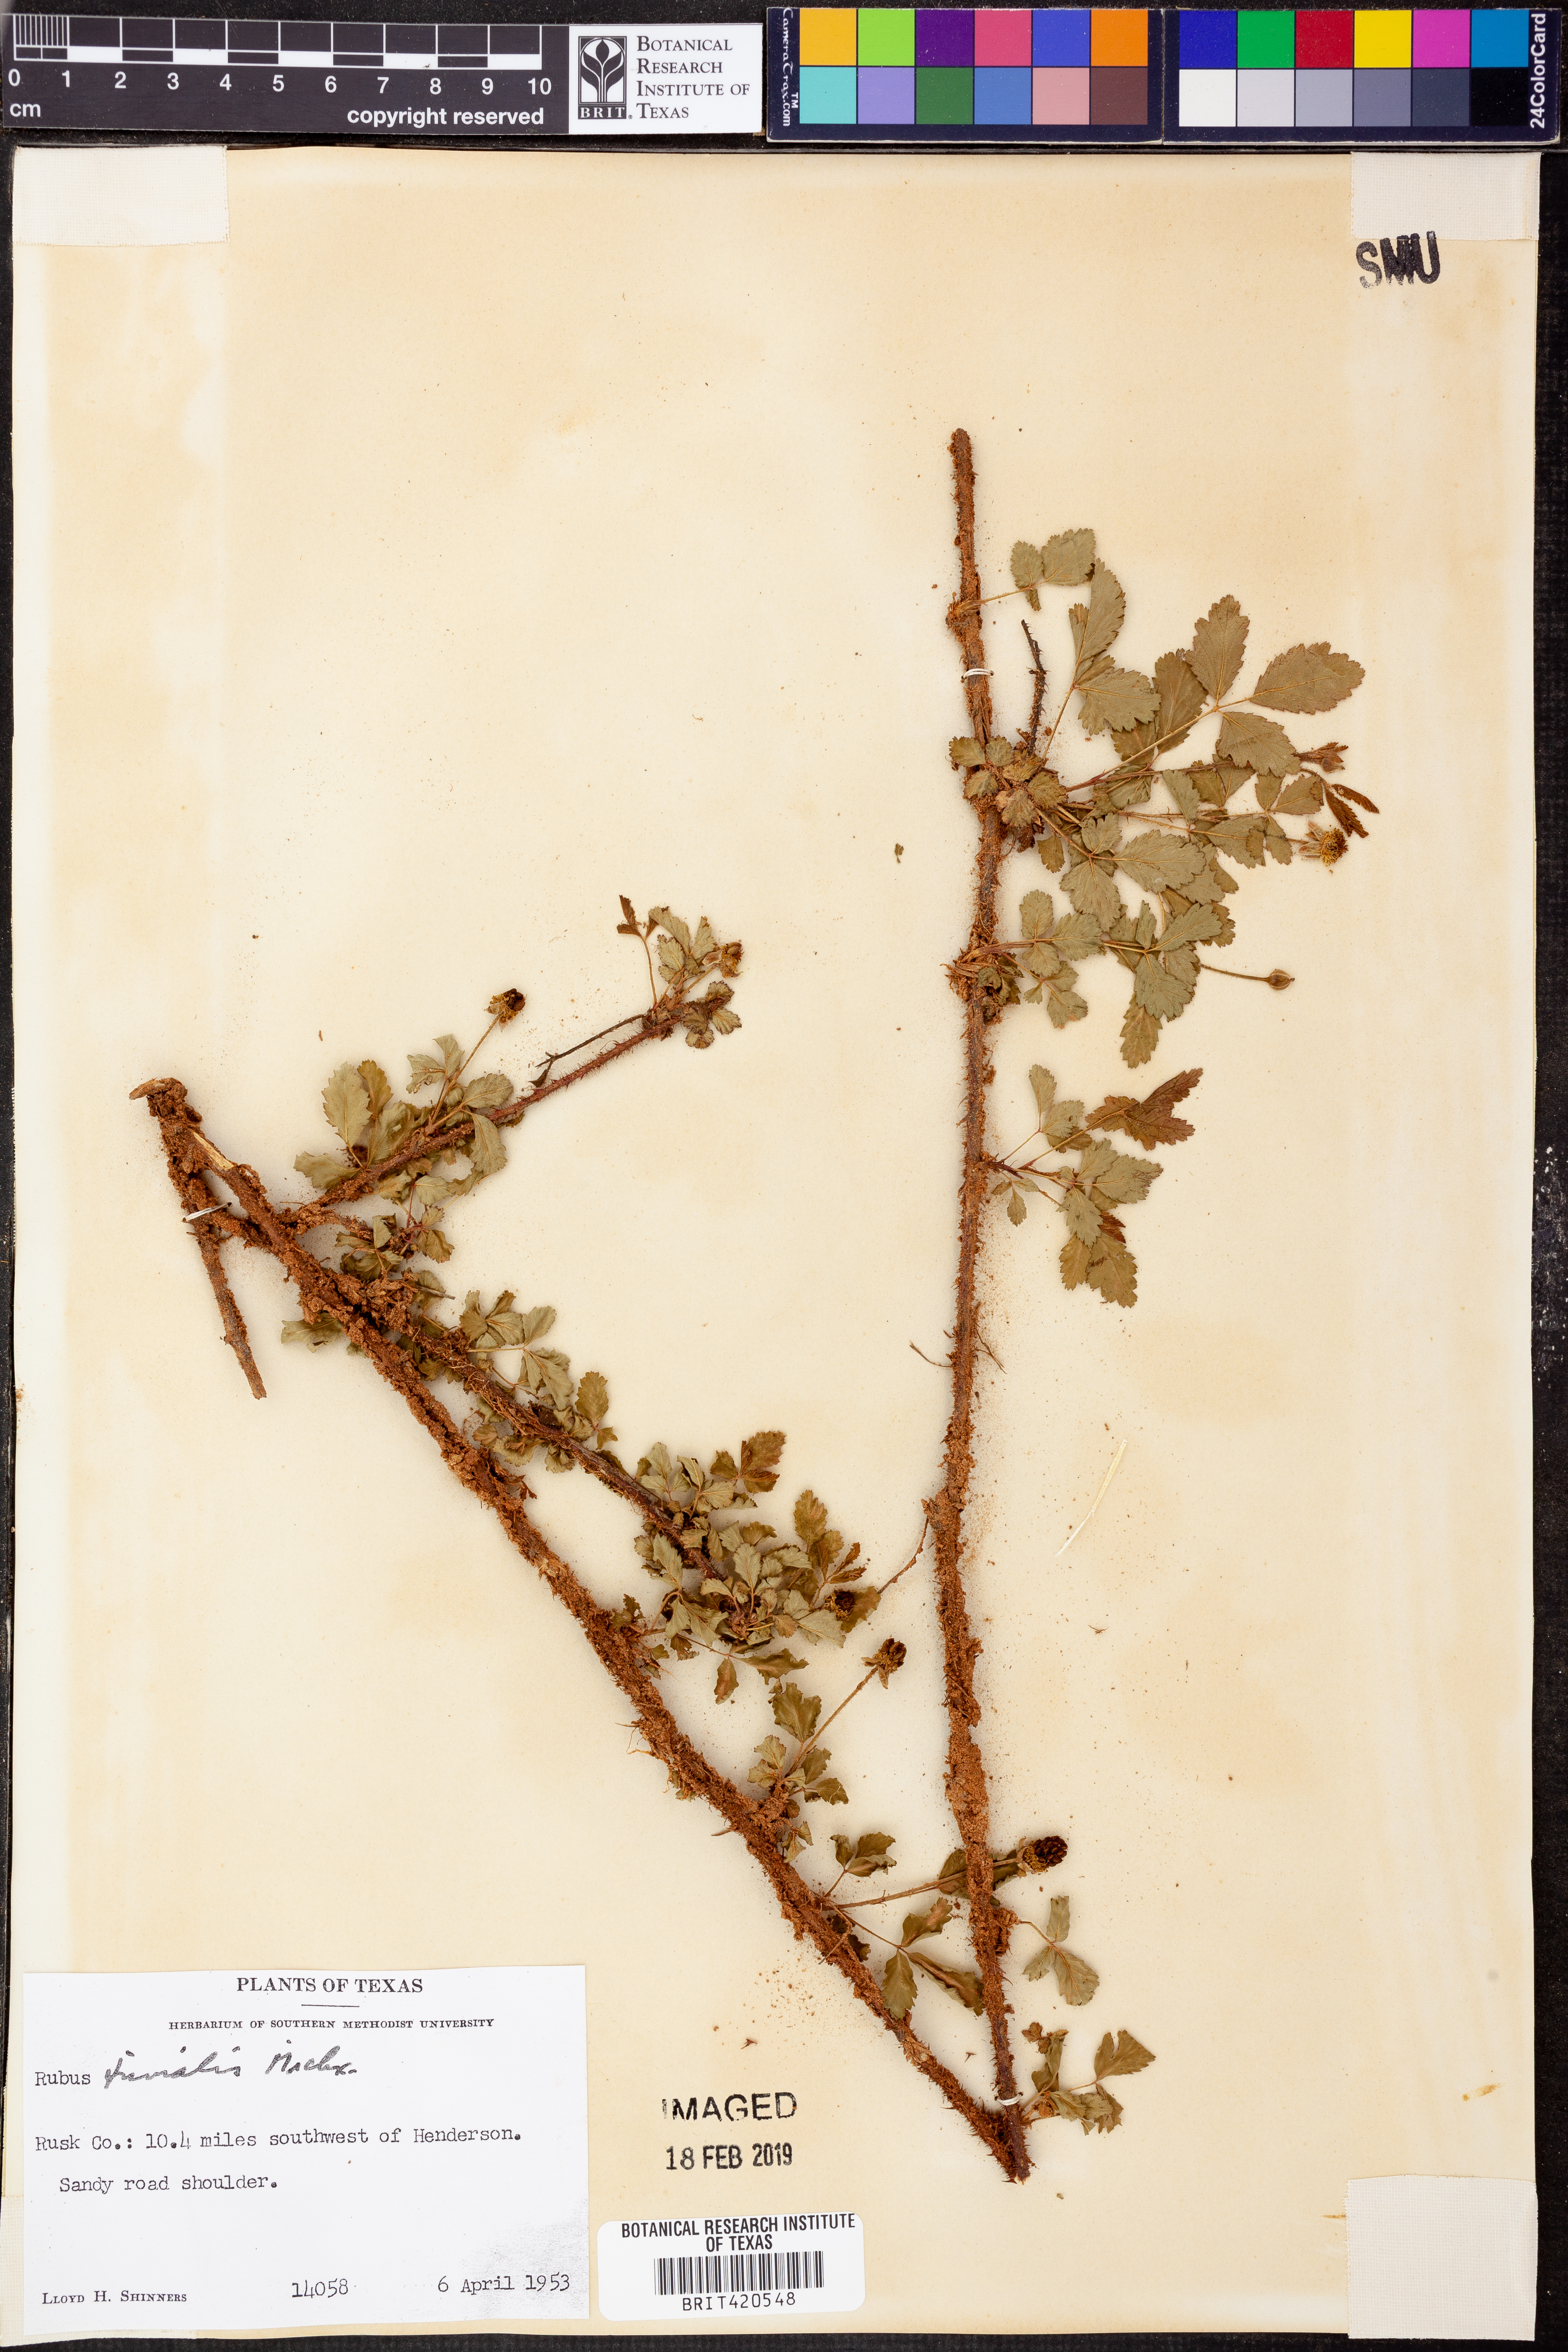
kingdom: Plantae
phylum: Tracheophyta
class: Magnoliopsida
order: Rosales
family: Rosaceae
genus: Rubus
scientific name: Rubus trivialis
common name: Southern dewberry
